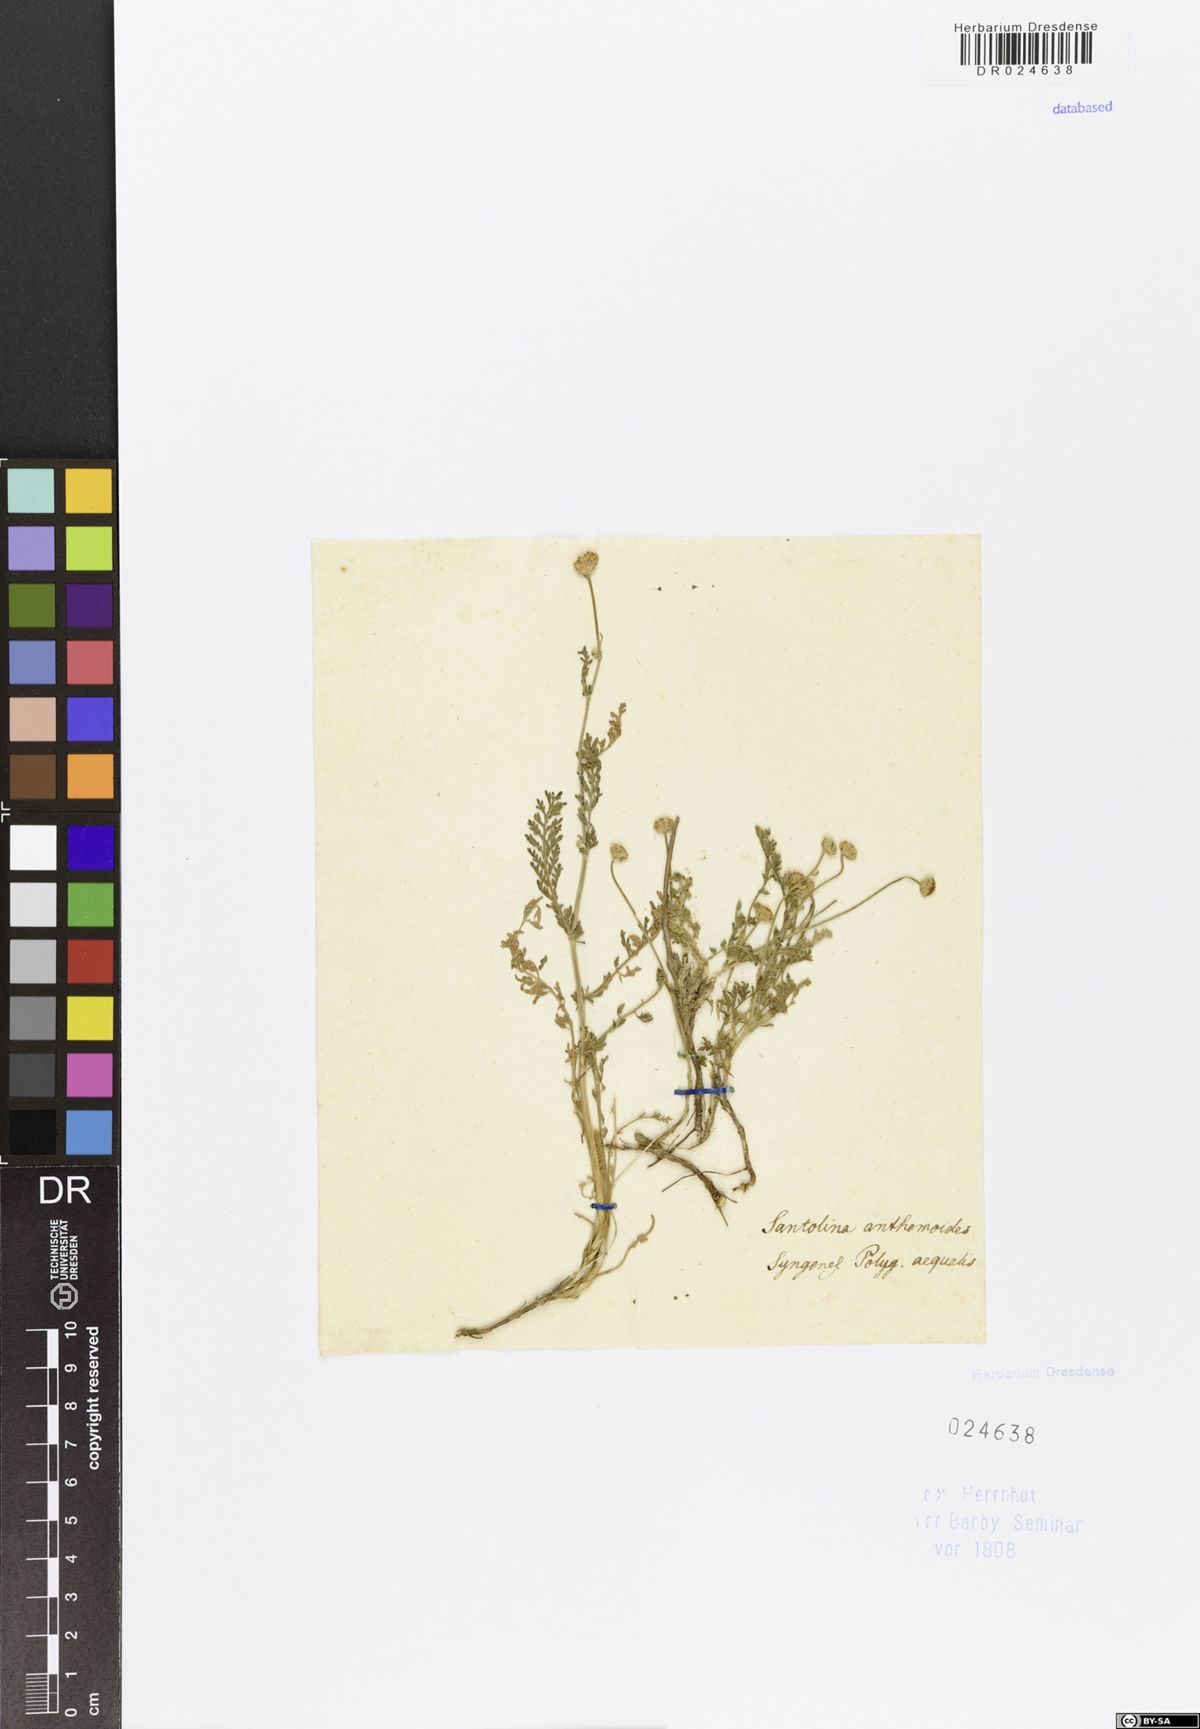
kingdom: Plantae
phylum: Tracheophyta
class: Magnoliopsida
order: Asterales
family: Asteraceae
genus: Anacyclus
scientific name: Anacyclus valentinus
